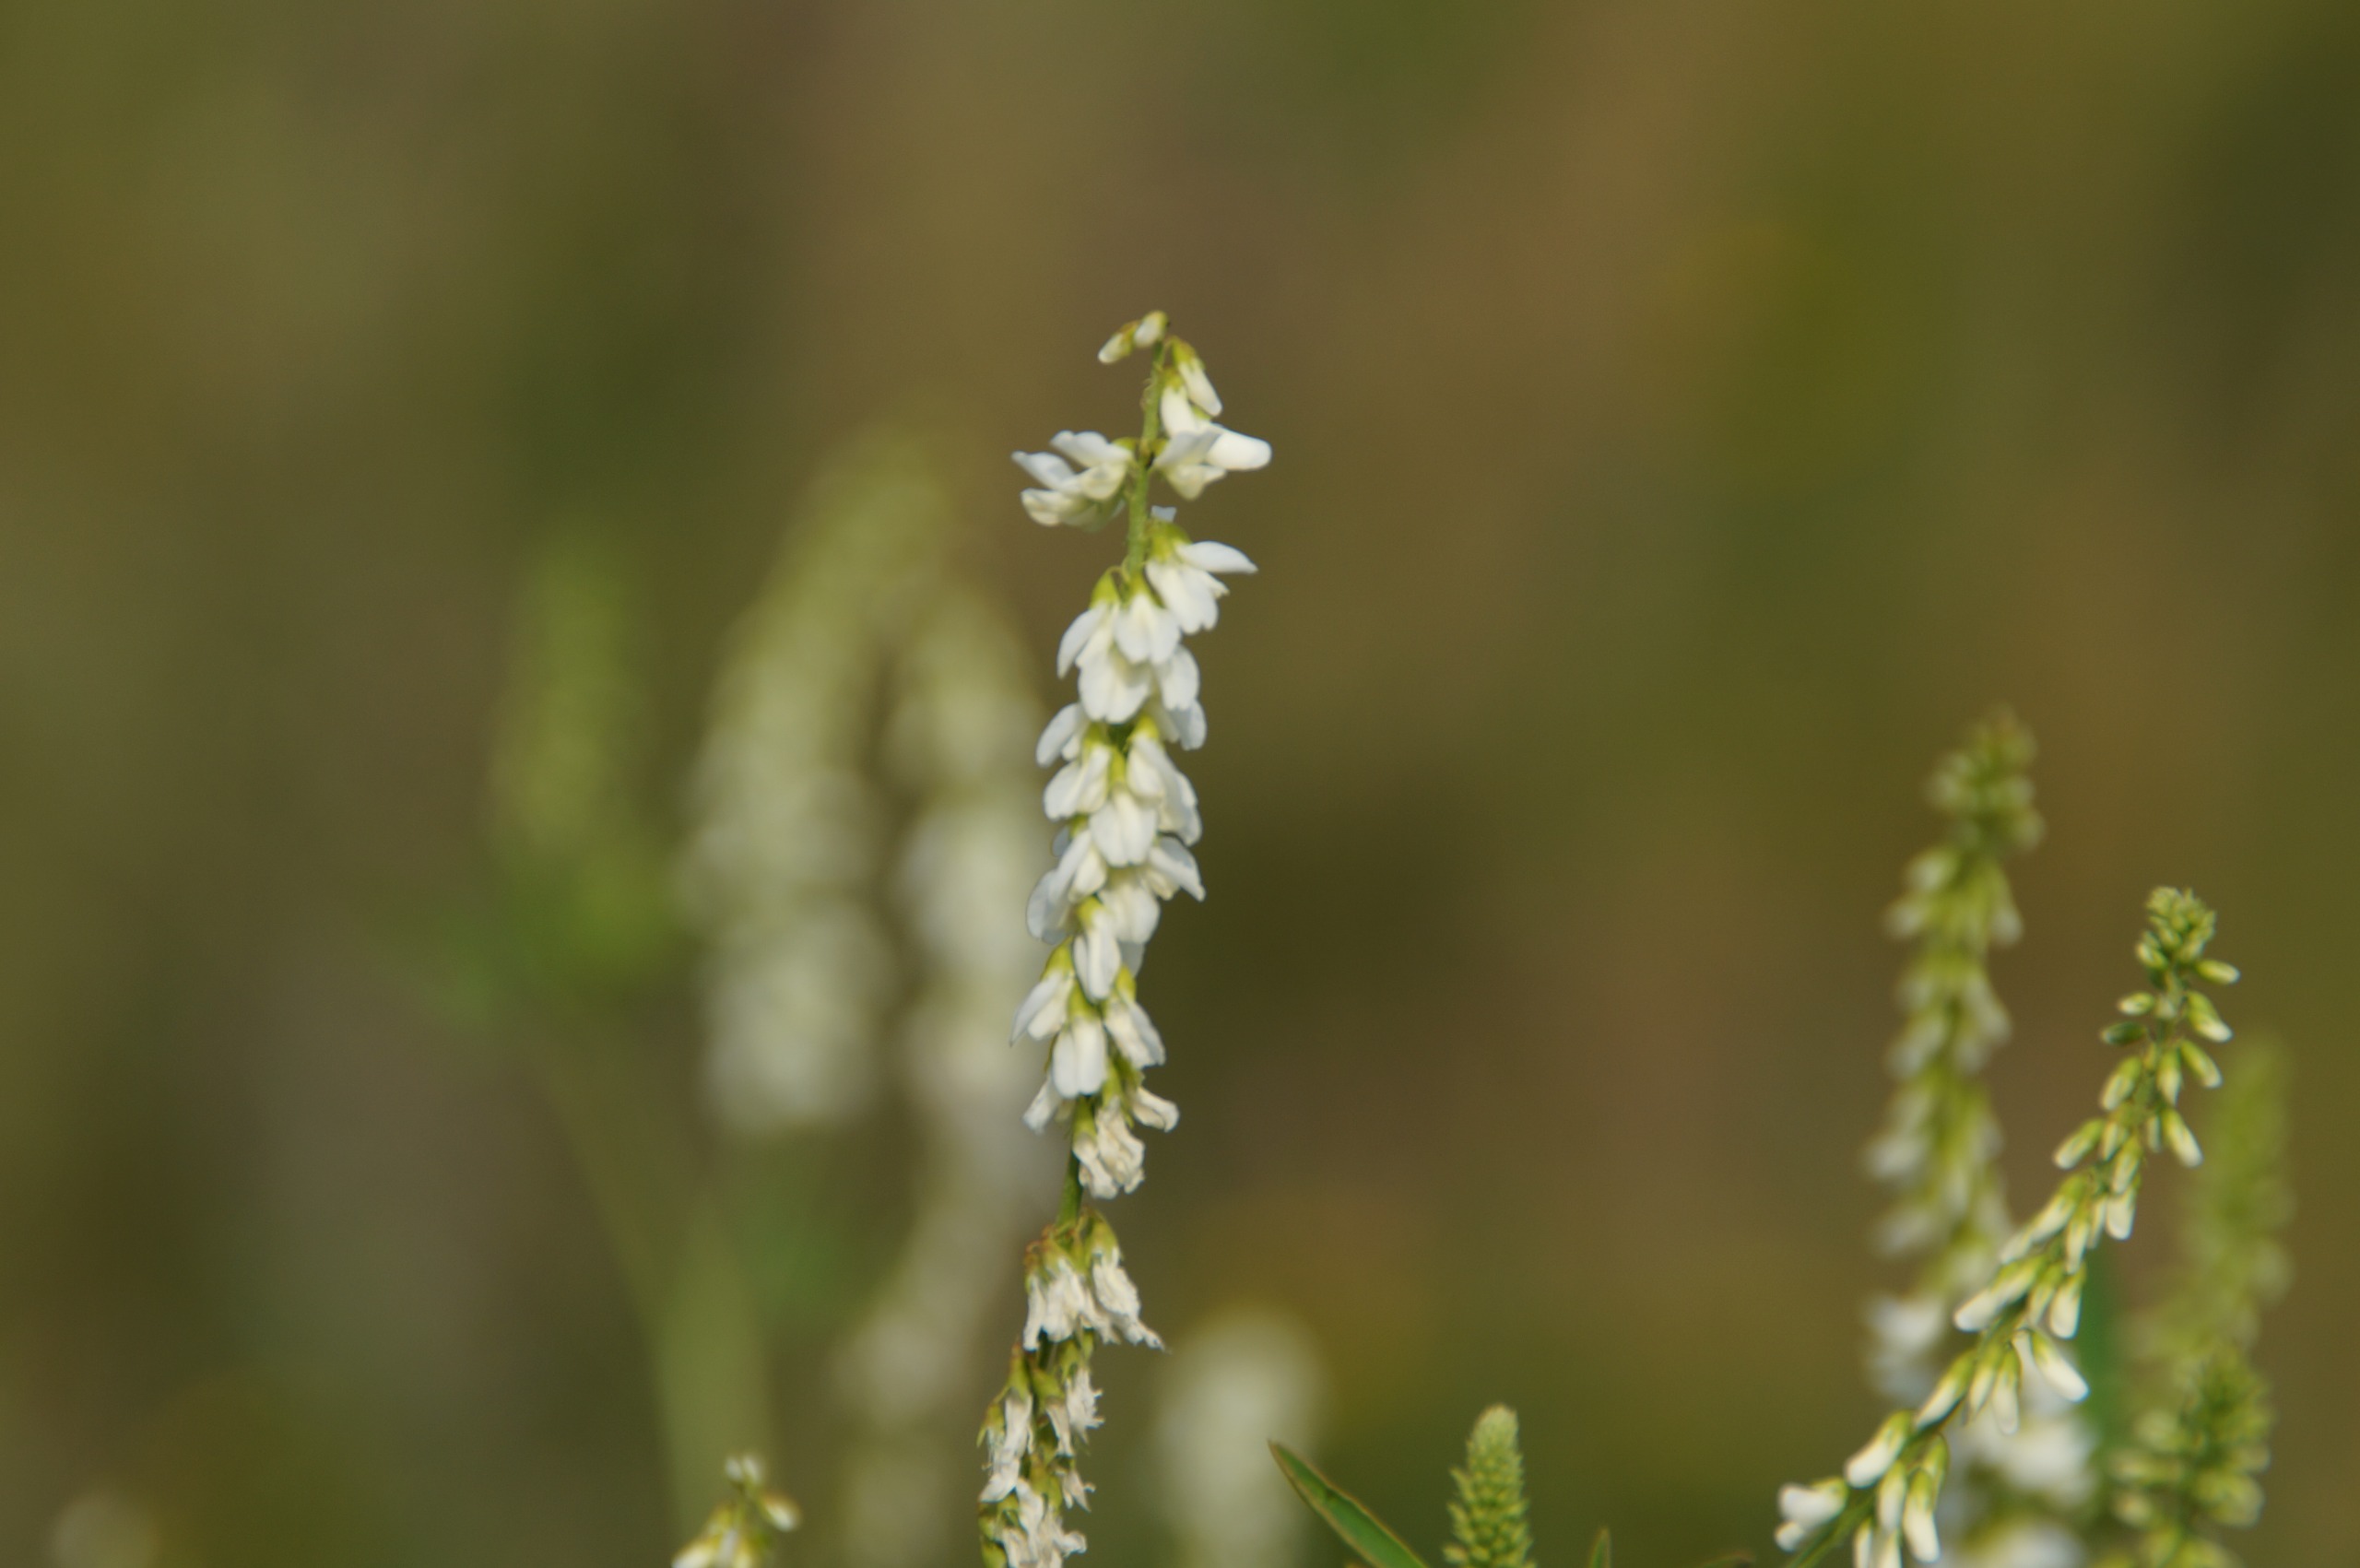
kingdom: Plantae
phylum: Tracheophyta
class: Magnoliopsida
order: Fabales
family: Fabaceae
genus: Melilotus
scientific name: Melilotus albus
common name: Hvid stenkløver
